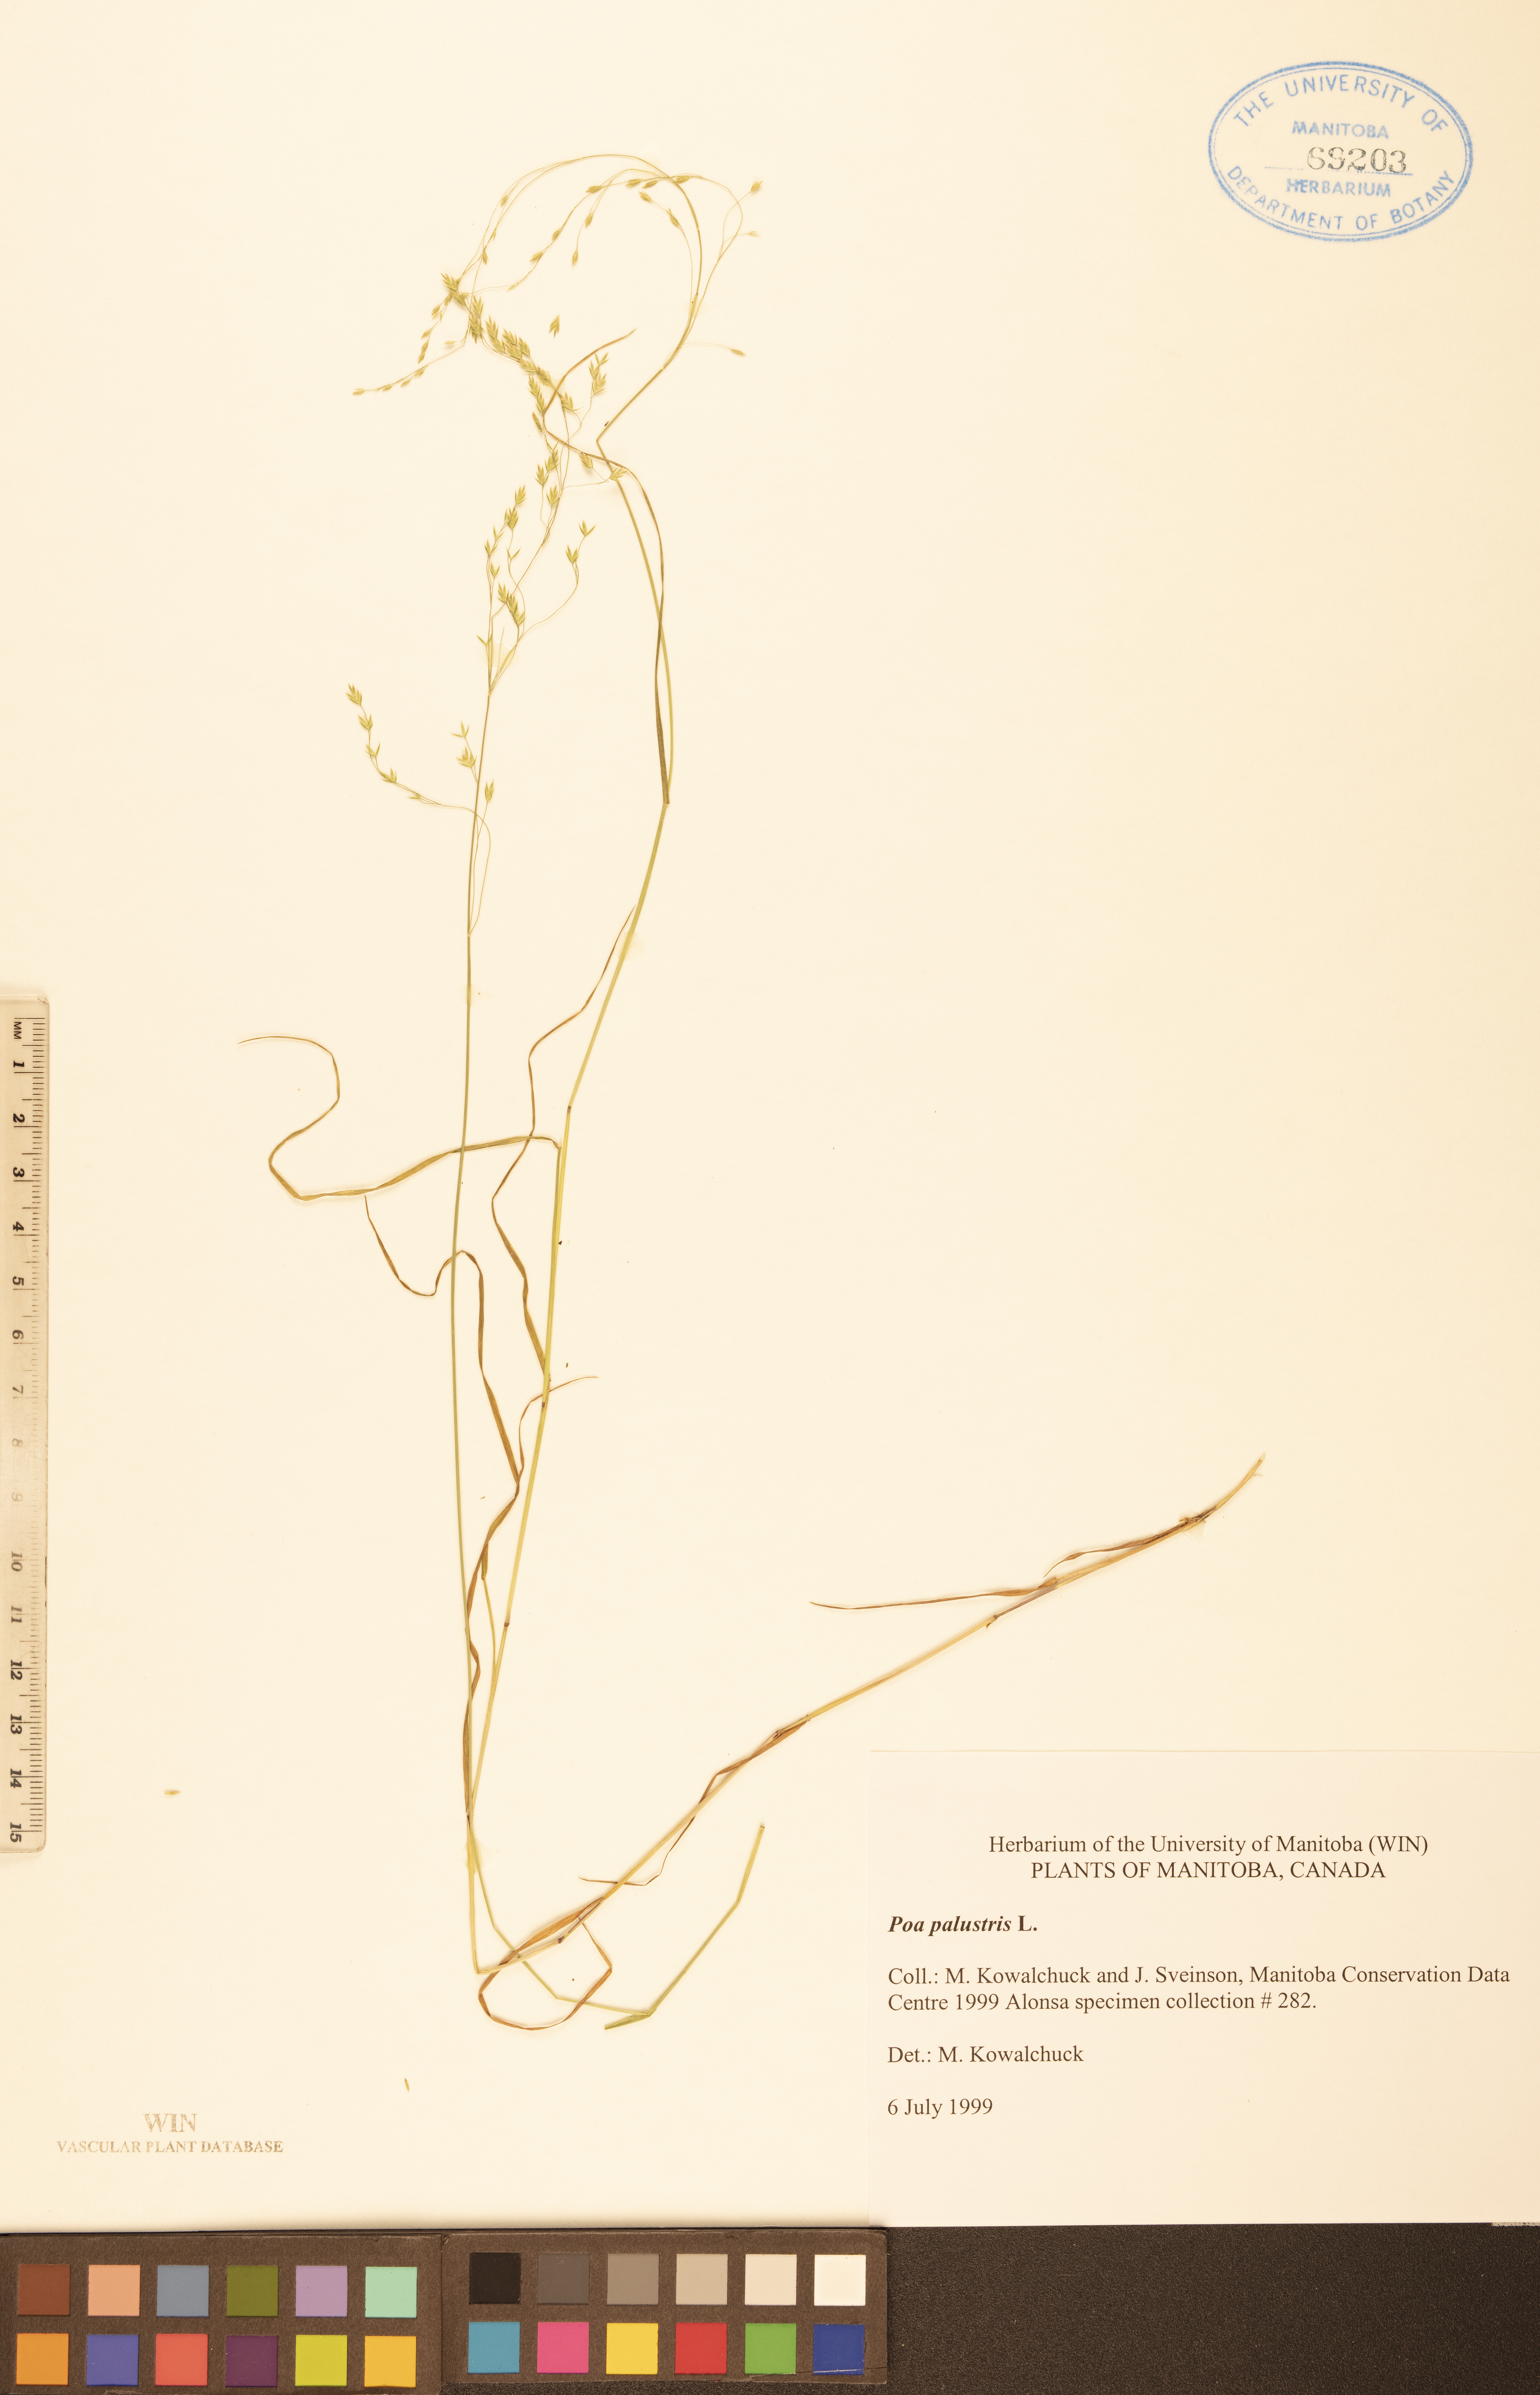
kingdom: Plantae
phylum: Tracheophyta
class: Liliopsida
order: Poales
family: Poaceae
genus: Poa
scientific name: Poa palustris
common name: Swamp meadow-grass
